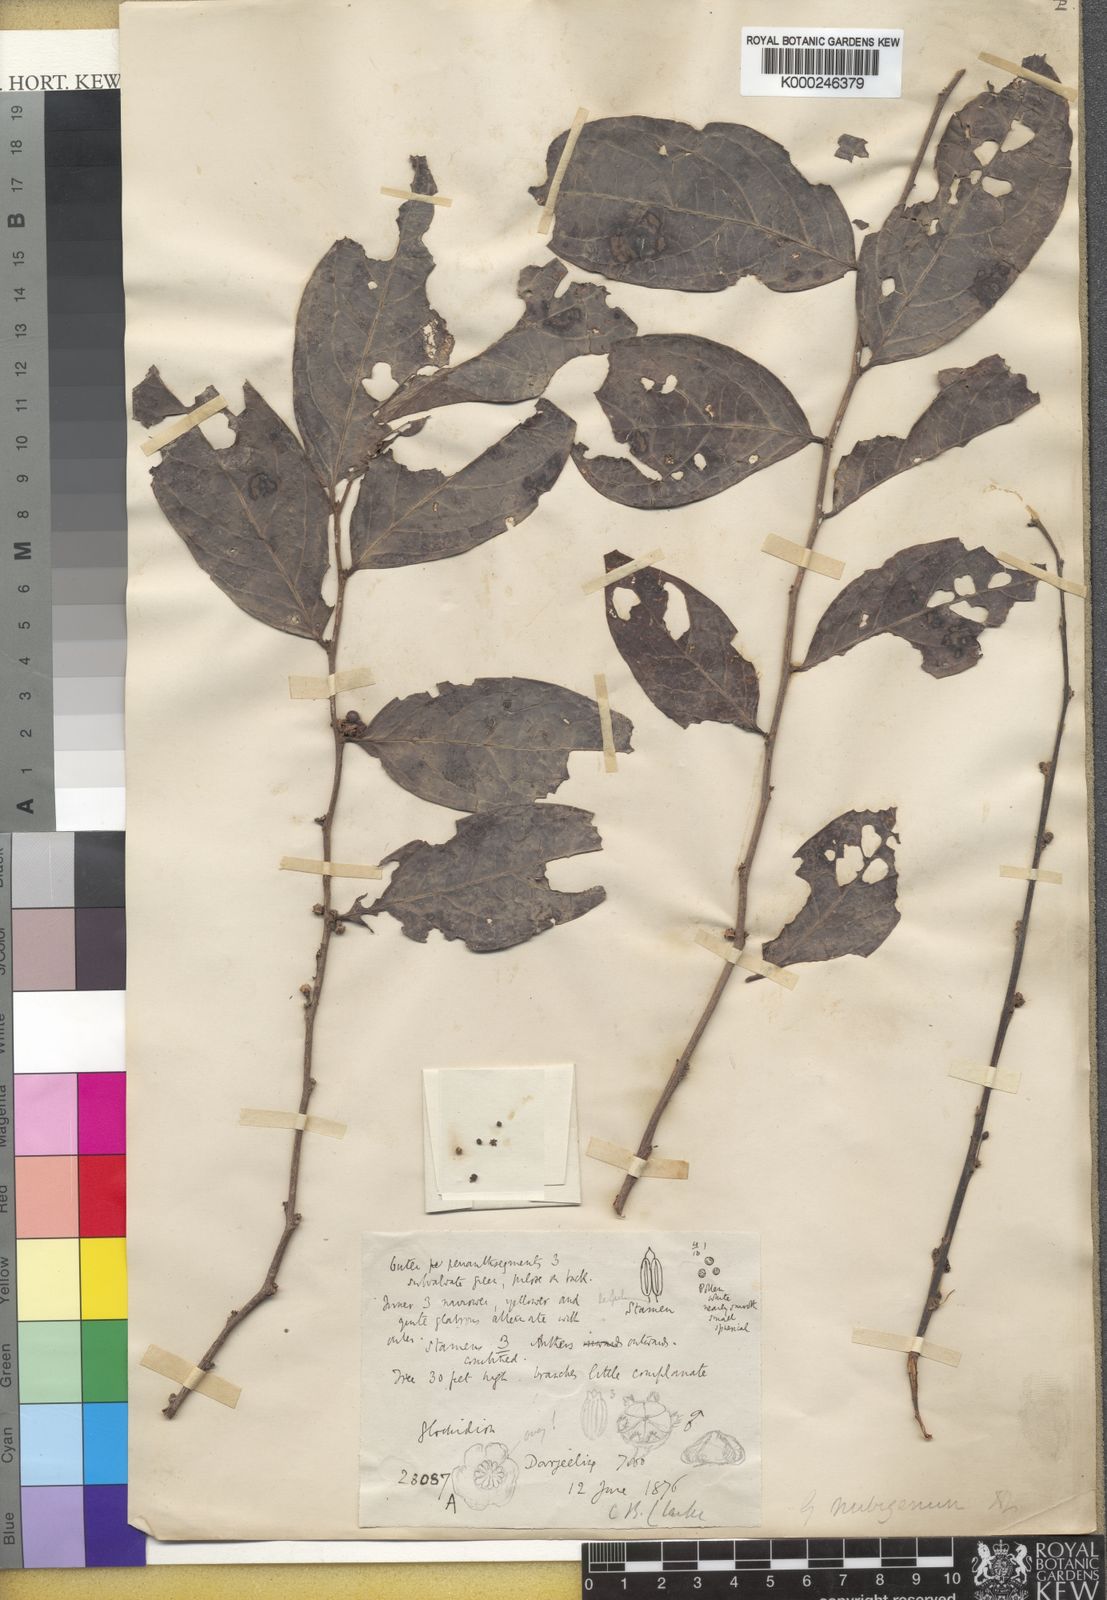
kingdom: Plantae
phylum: Tracheophyta
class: Magnoliopsida
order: Malpighiales
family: Phyllanthaceae
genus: Glochidion
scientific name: Glochidion nubigenum
